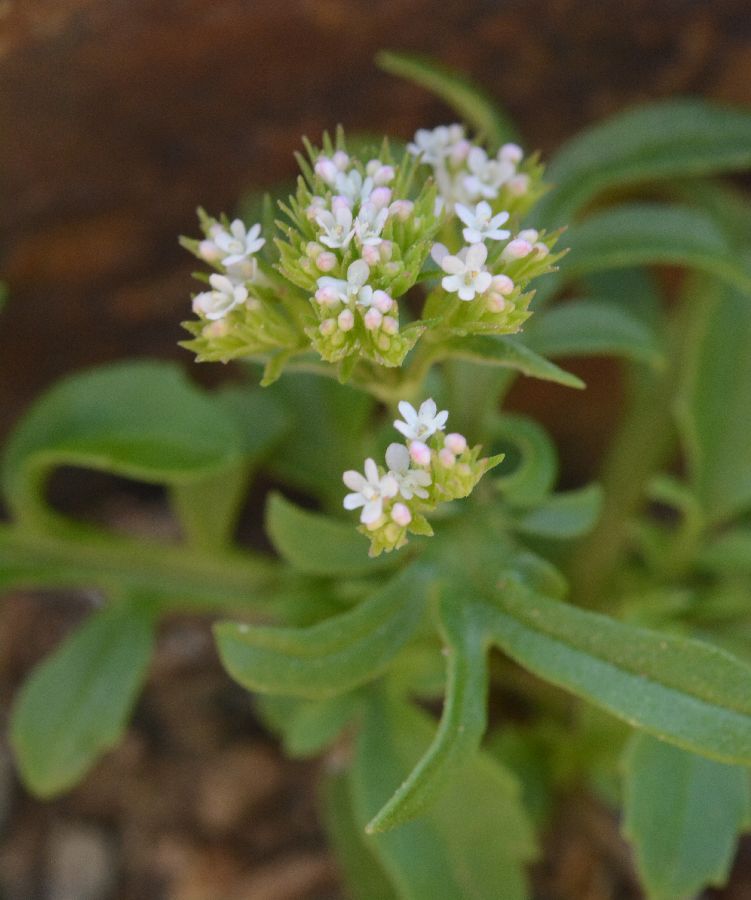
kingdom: Plantae
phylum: Tracheophyta
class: Magnoliopsida
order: Dipsacales
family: Caprifoliaceae
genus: Centranthus
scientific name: Centranthus calcitrapae
